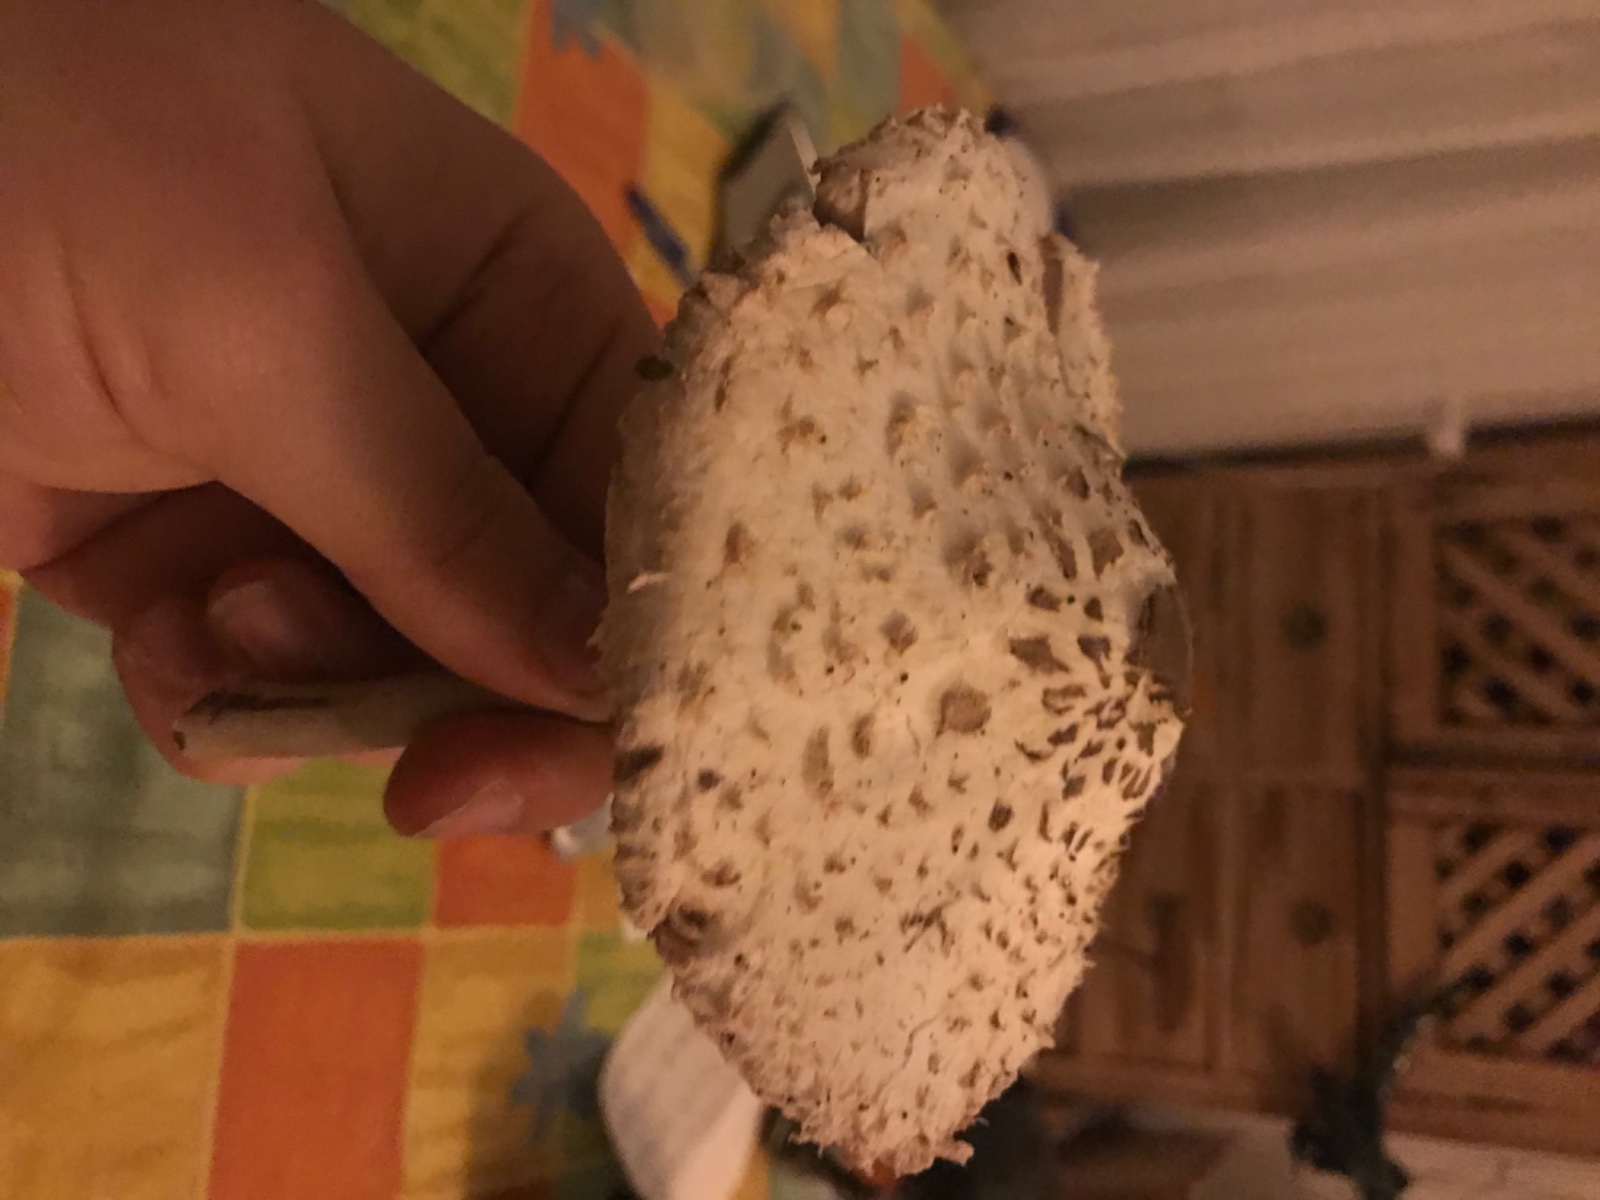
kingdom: Fungi
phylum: Basidiomycota
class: Agaricomycetes
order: Agaricales
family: Agaricaceae
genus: Chlorophyllum
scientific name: Chlorophyllum
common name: rabarberhat
